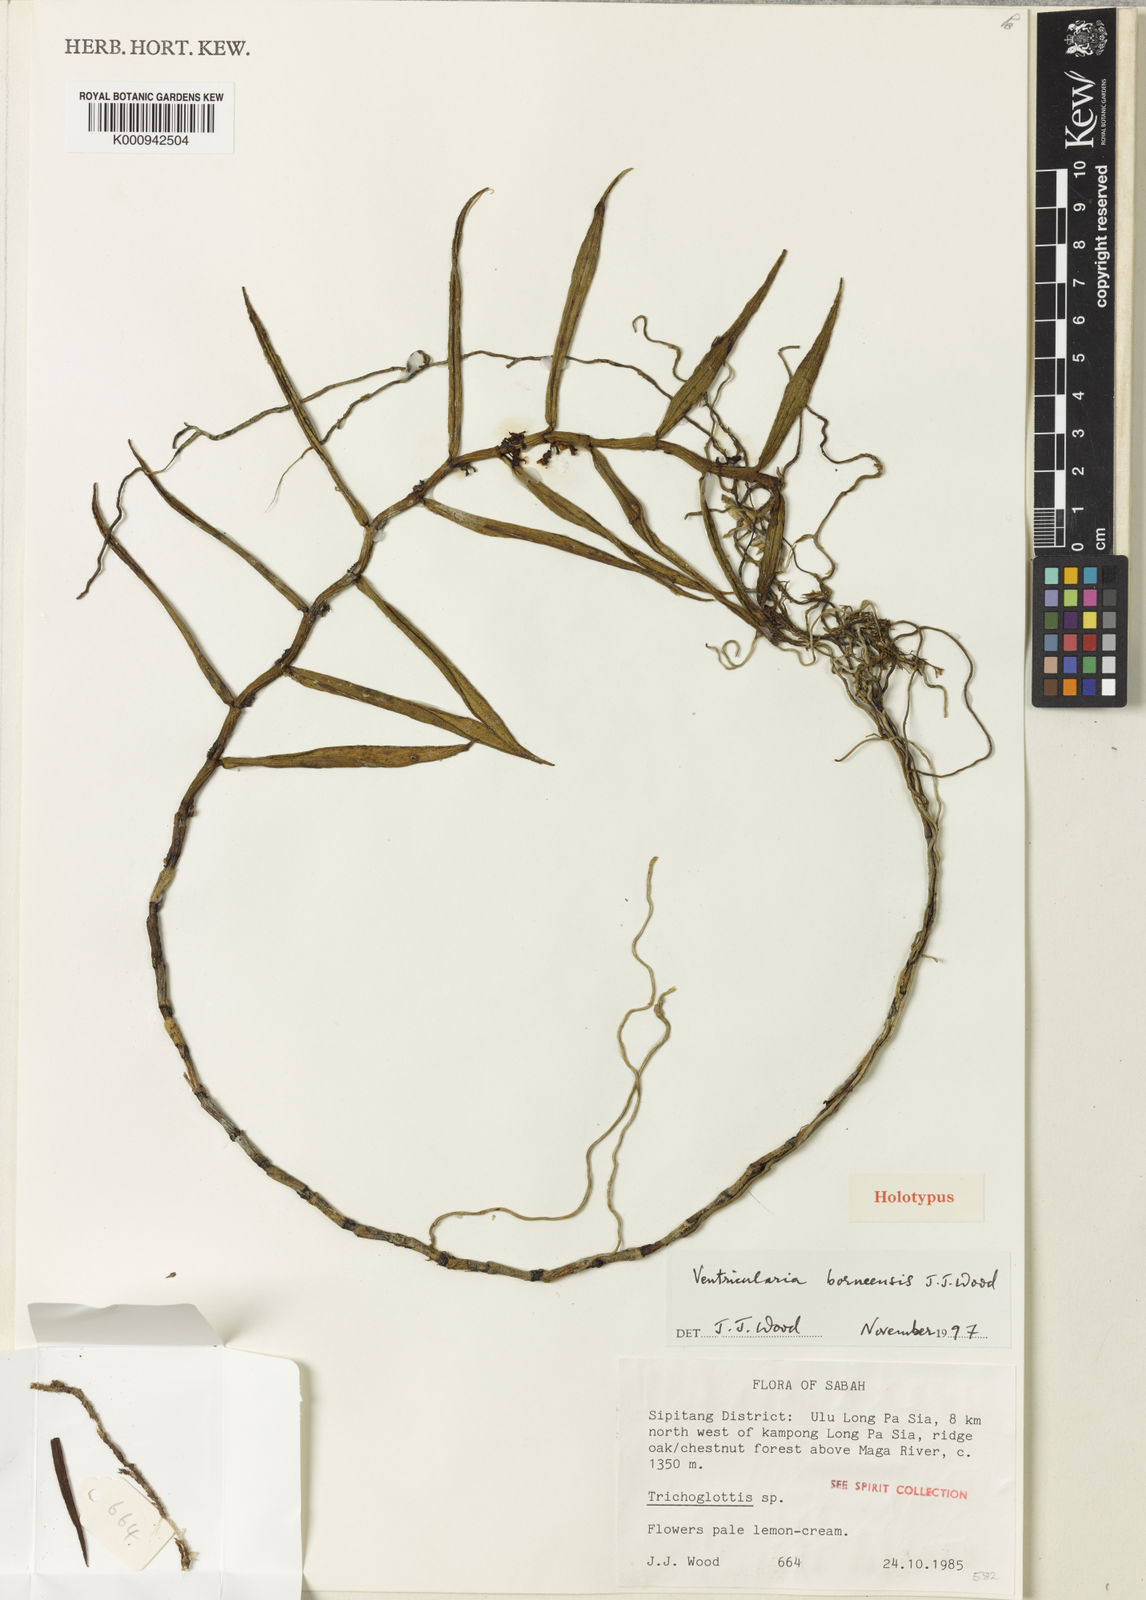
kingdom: Plantae
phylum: Tracheophyta
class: Liliopsida
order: Asparagales
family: Orchidaceae
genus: Trichoglottis
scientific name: Trichoglottis borneensis
